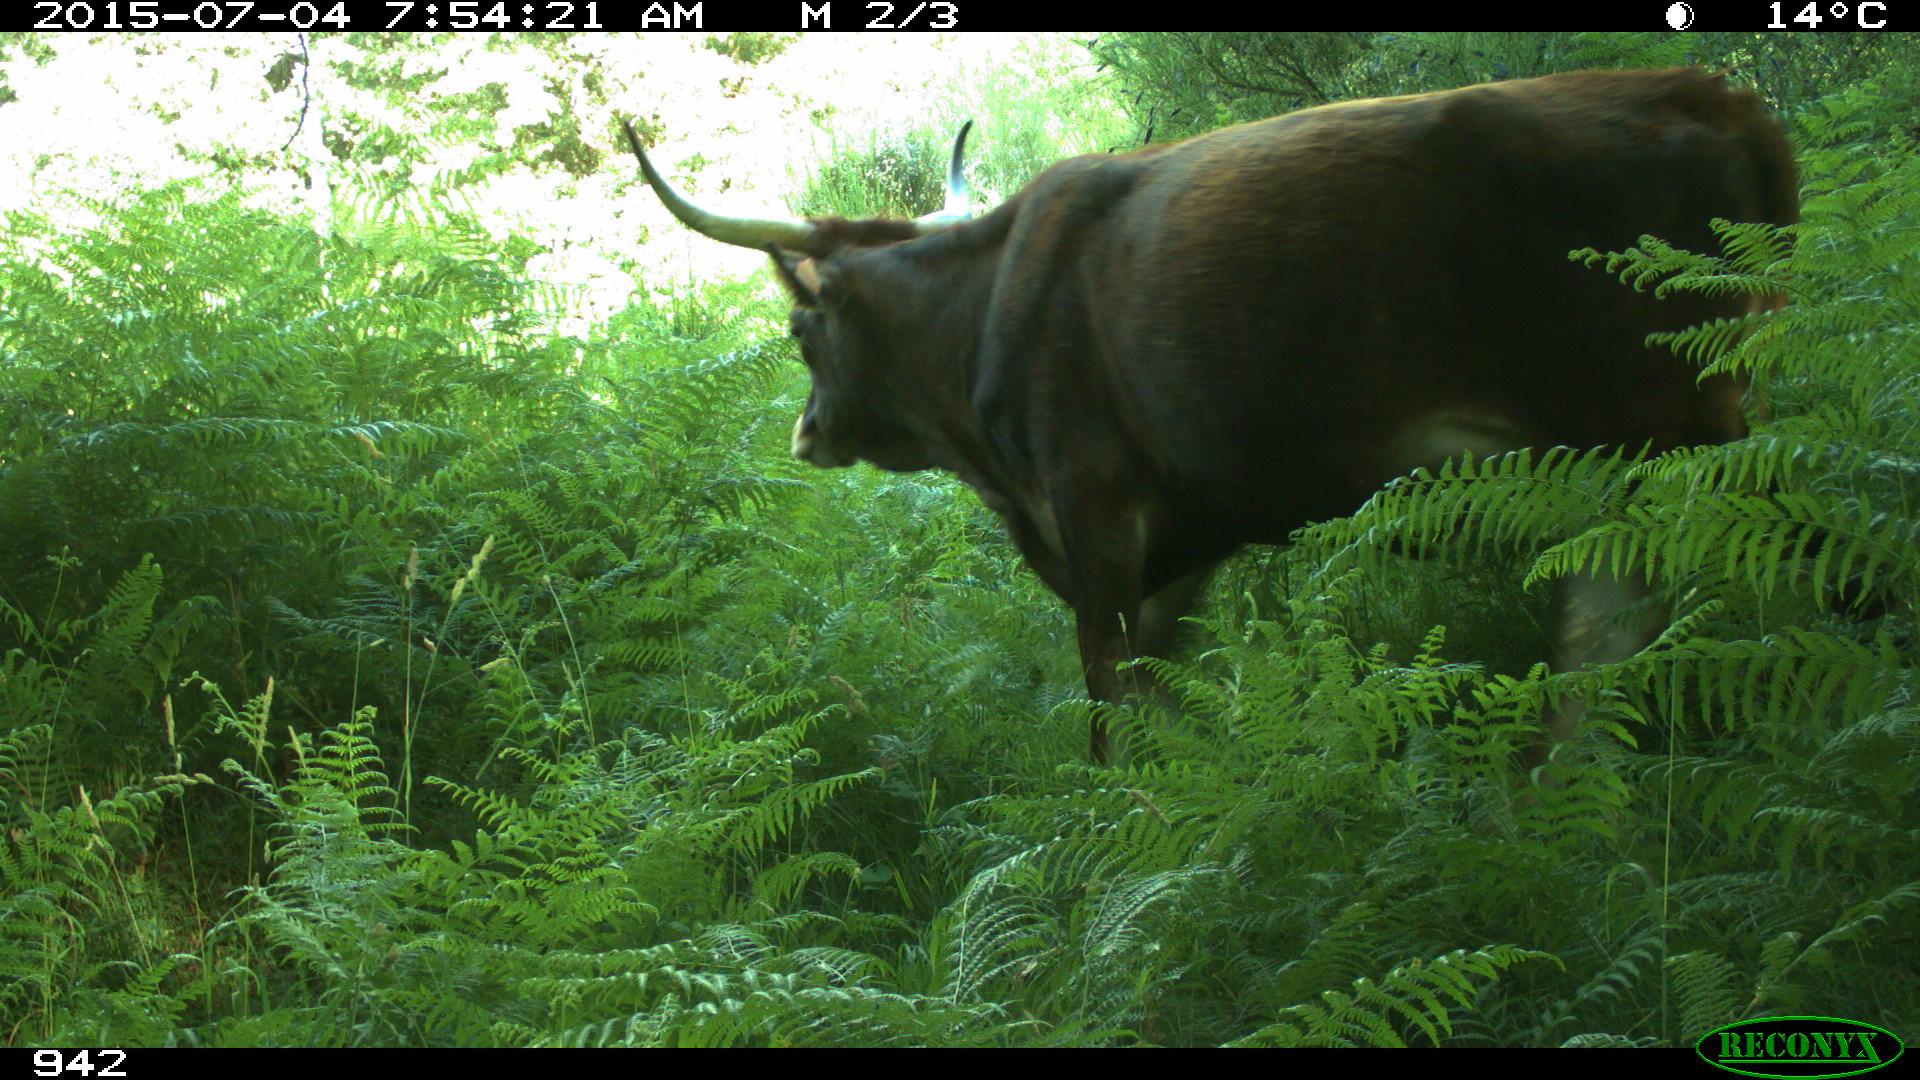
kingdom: Animalia
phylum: Chordata
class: Mammalia
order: Artiodactyla
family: Bovidae
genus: Bos
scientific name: Bos taurus
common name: Domesticated cattle
